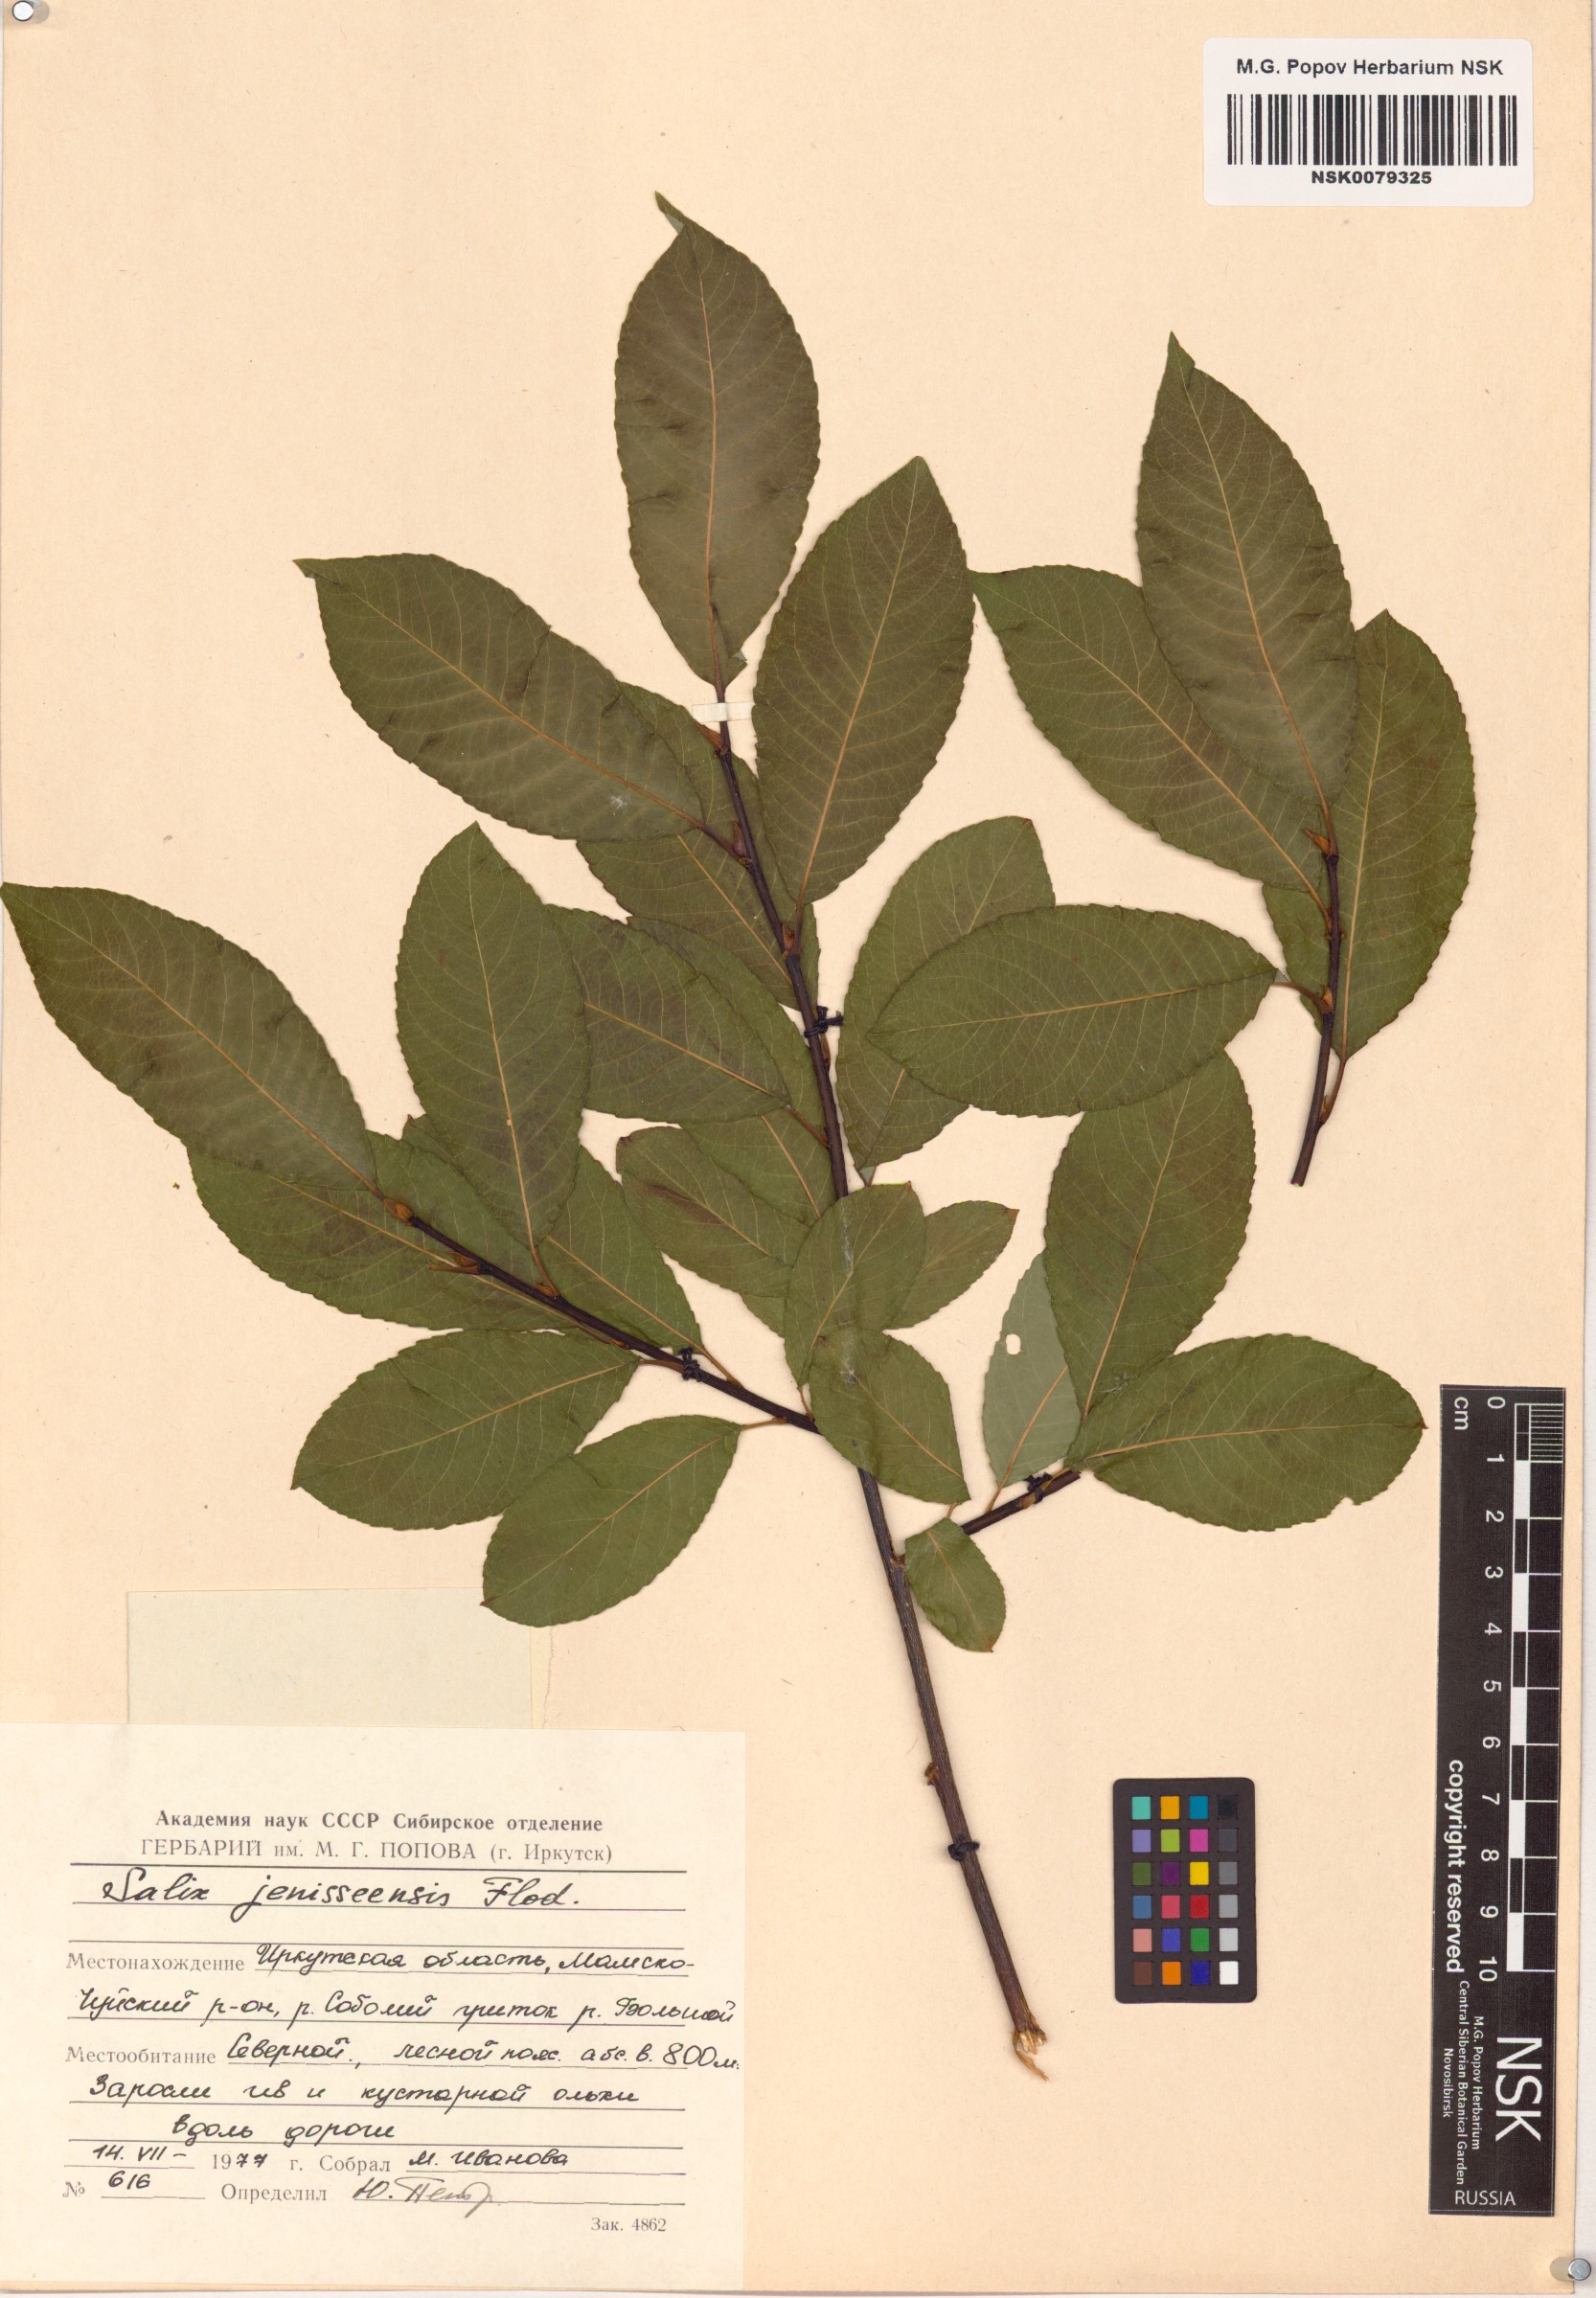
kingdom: Plantae
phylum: Tracheophyta
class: Magnoliopsida
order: Malpighiales
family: Salicaceae
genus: Salix
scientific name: Salix jenisseensis
